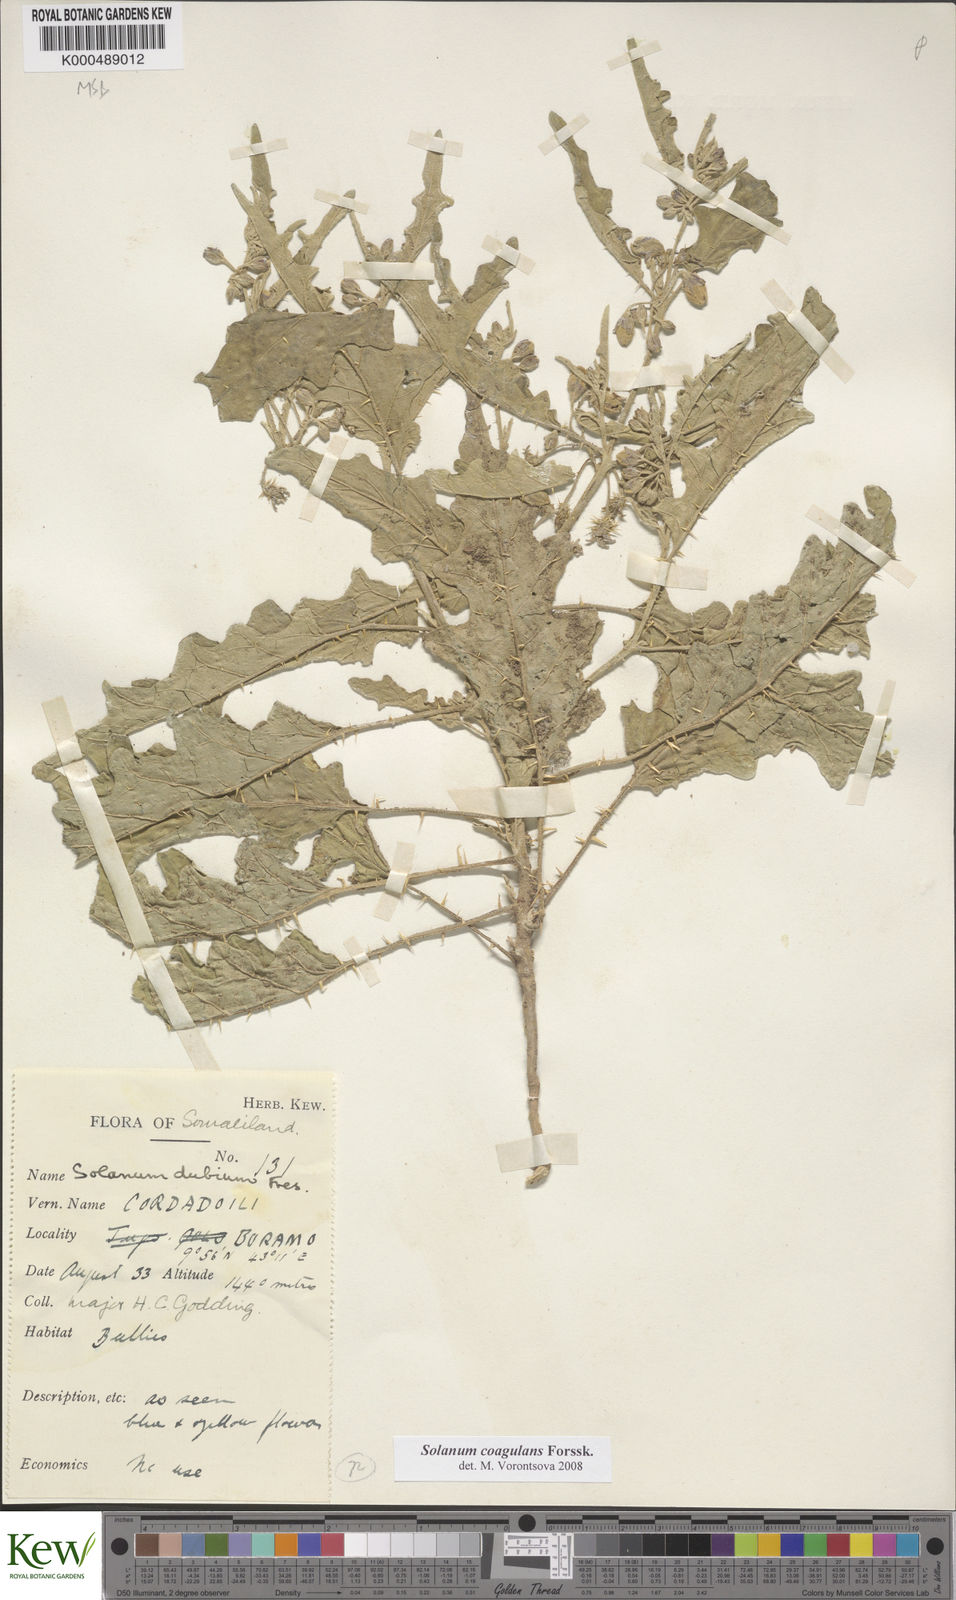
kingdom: Plantae
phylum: Tracheophyta
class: Magnoliopsida
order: Solanales
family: Solanaceae
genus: Solanum
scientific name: Solanum coagulans
